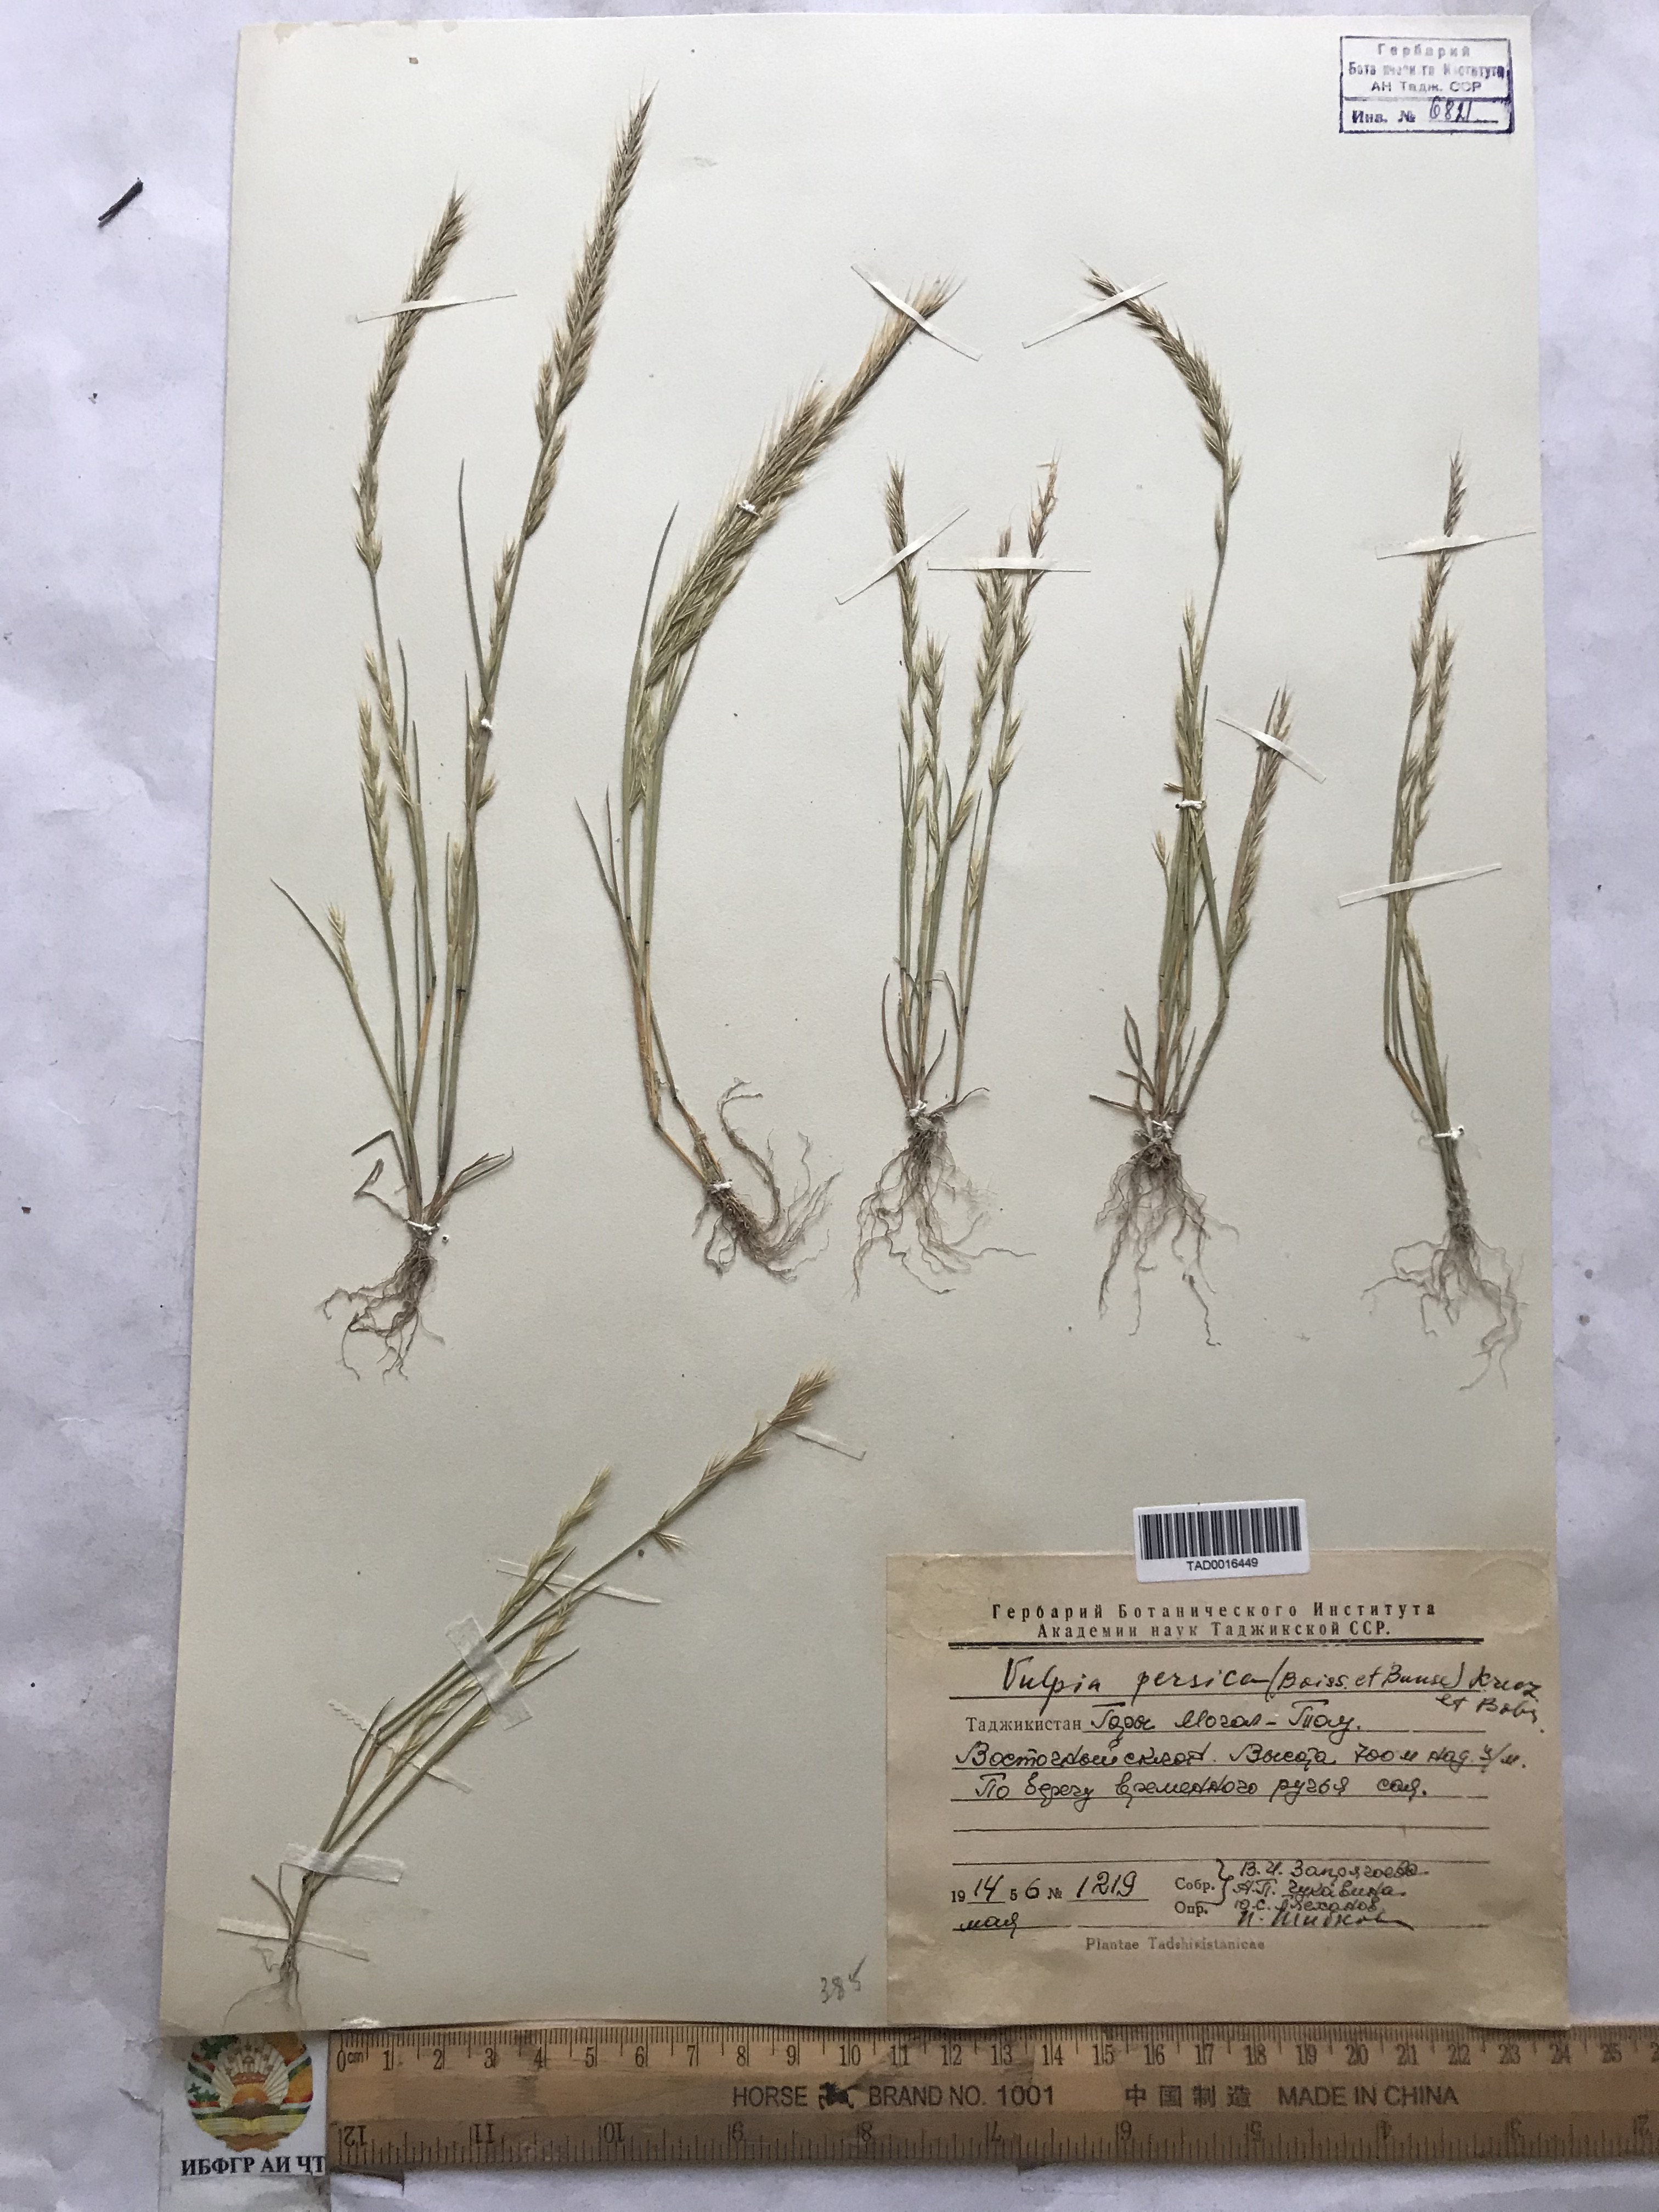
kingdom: Plantae
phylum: Tracheophyta
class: Liliopsida
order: Poales
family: Poaceae
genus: Festuca
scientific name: Festuca Vulpia persica
